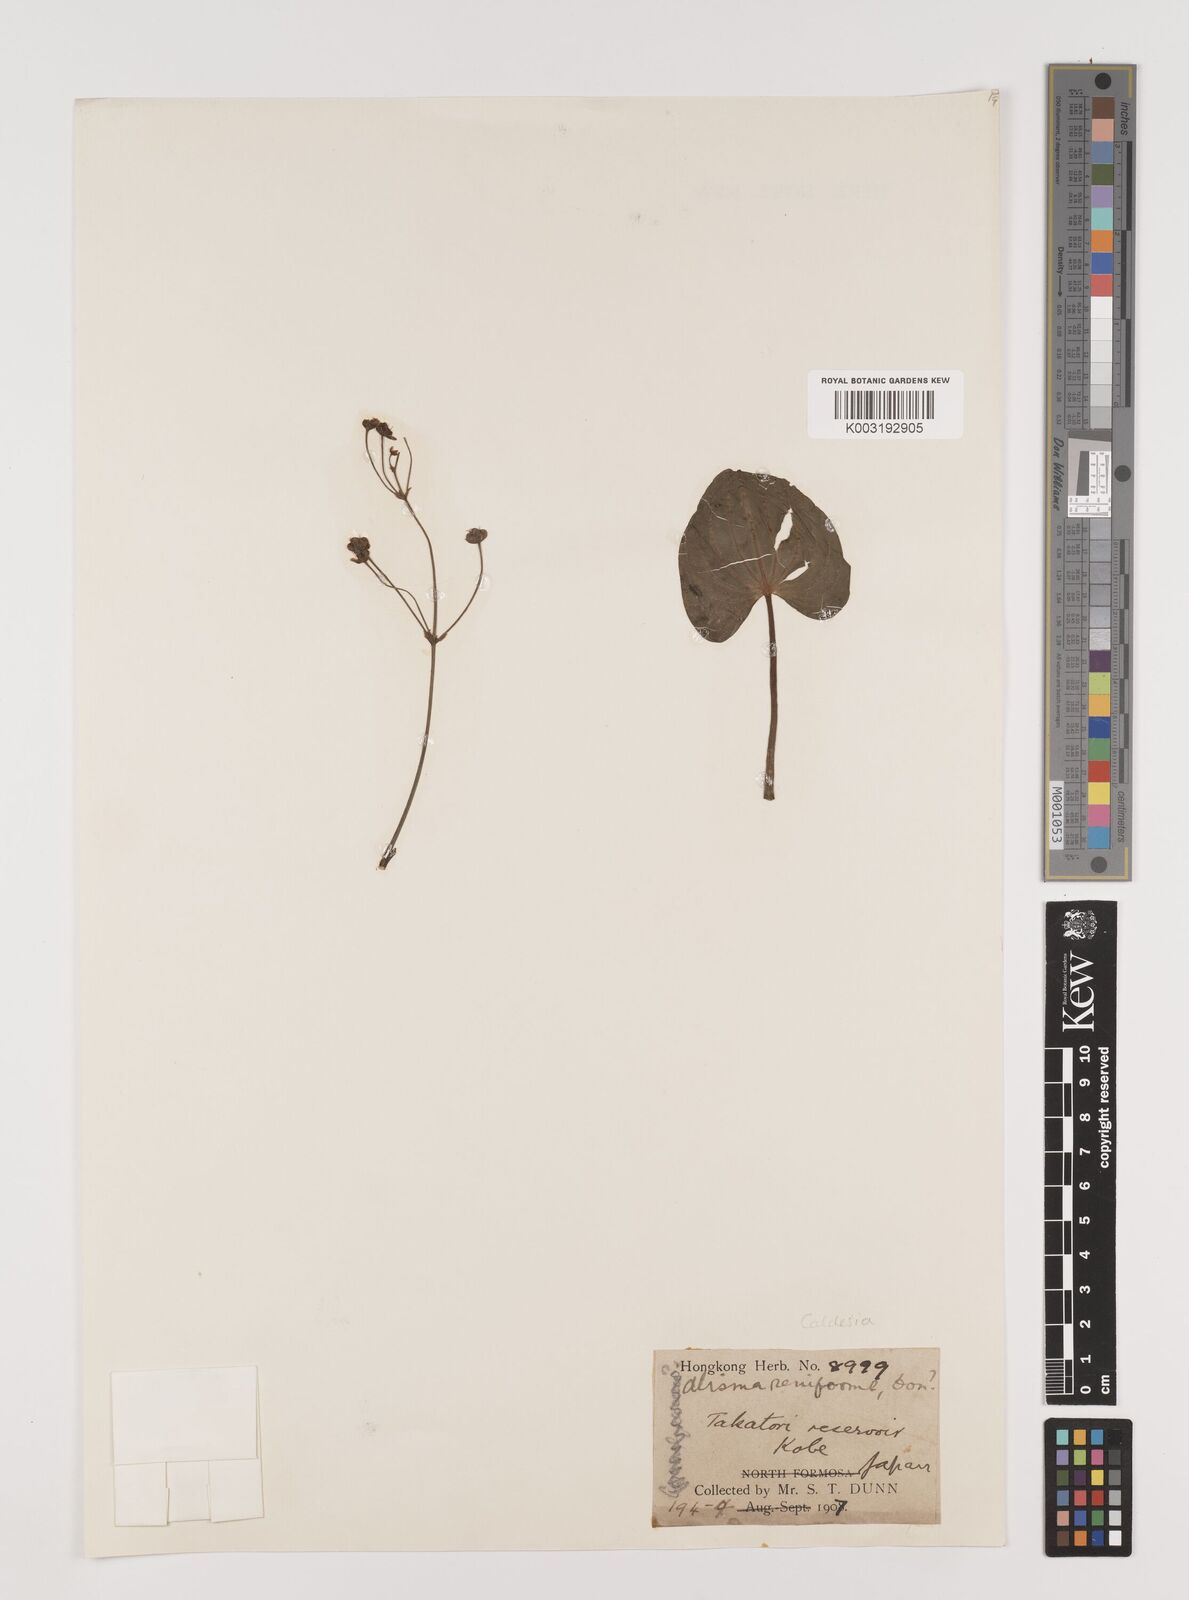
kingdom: Plantae
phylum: Tracheophyta
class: Liliopsida
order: Alismatales
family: Alismataceae
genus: Caldesia
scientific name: Caldesia
